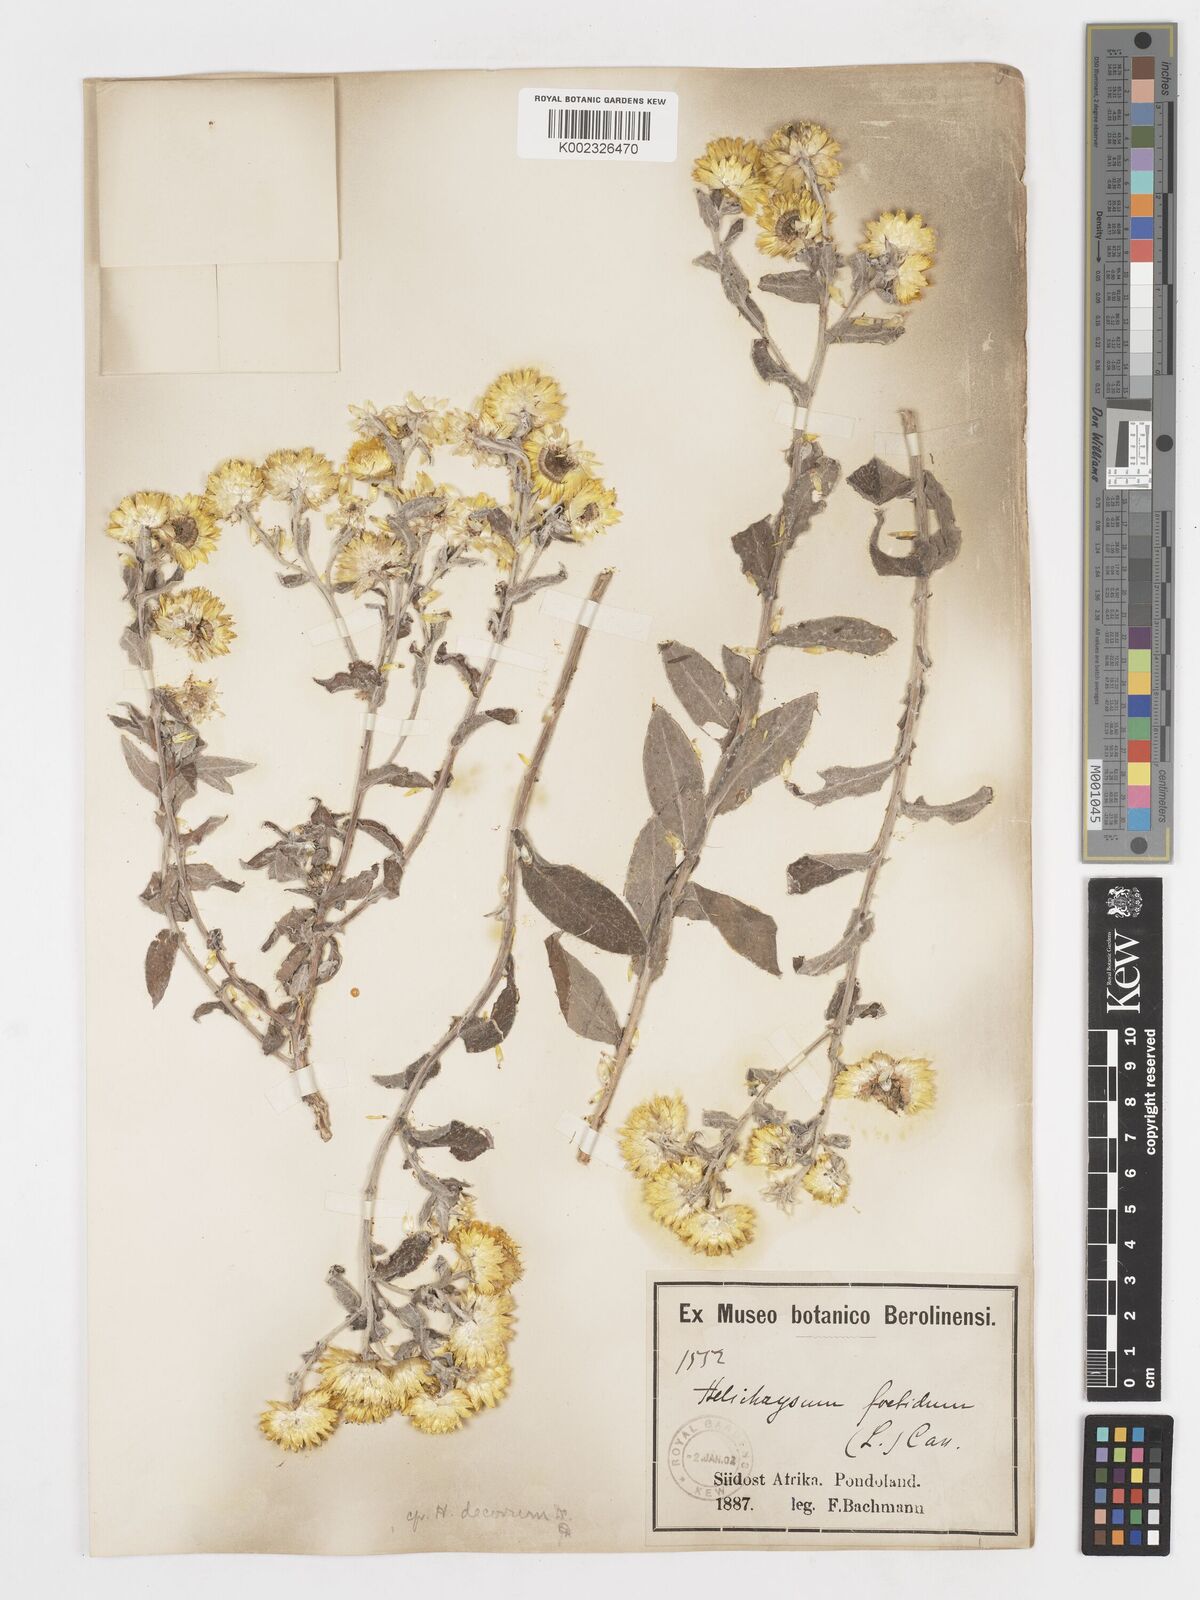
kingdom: Plantae
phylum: Tracheophyta
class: Magnoliopsida
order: Asterales
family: Asteraceae
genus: Helichrysum
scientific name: Helichrysum decorum
